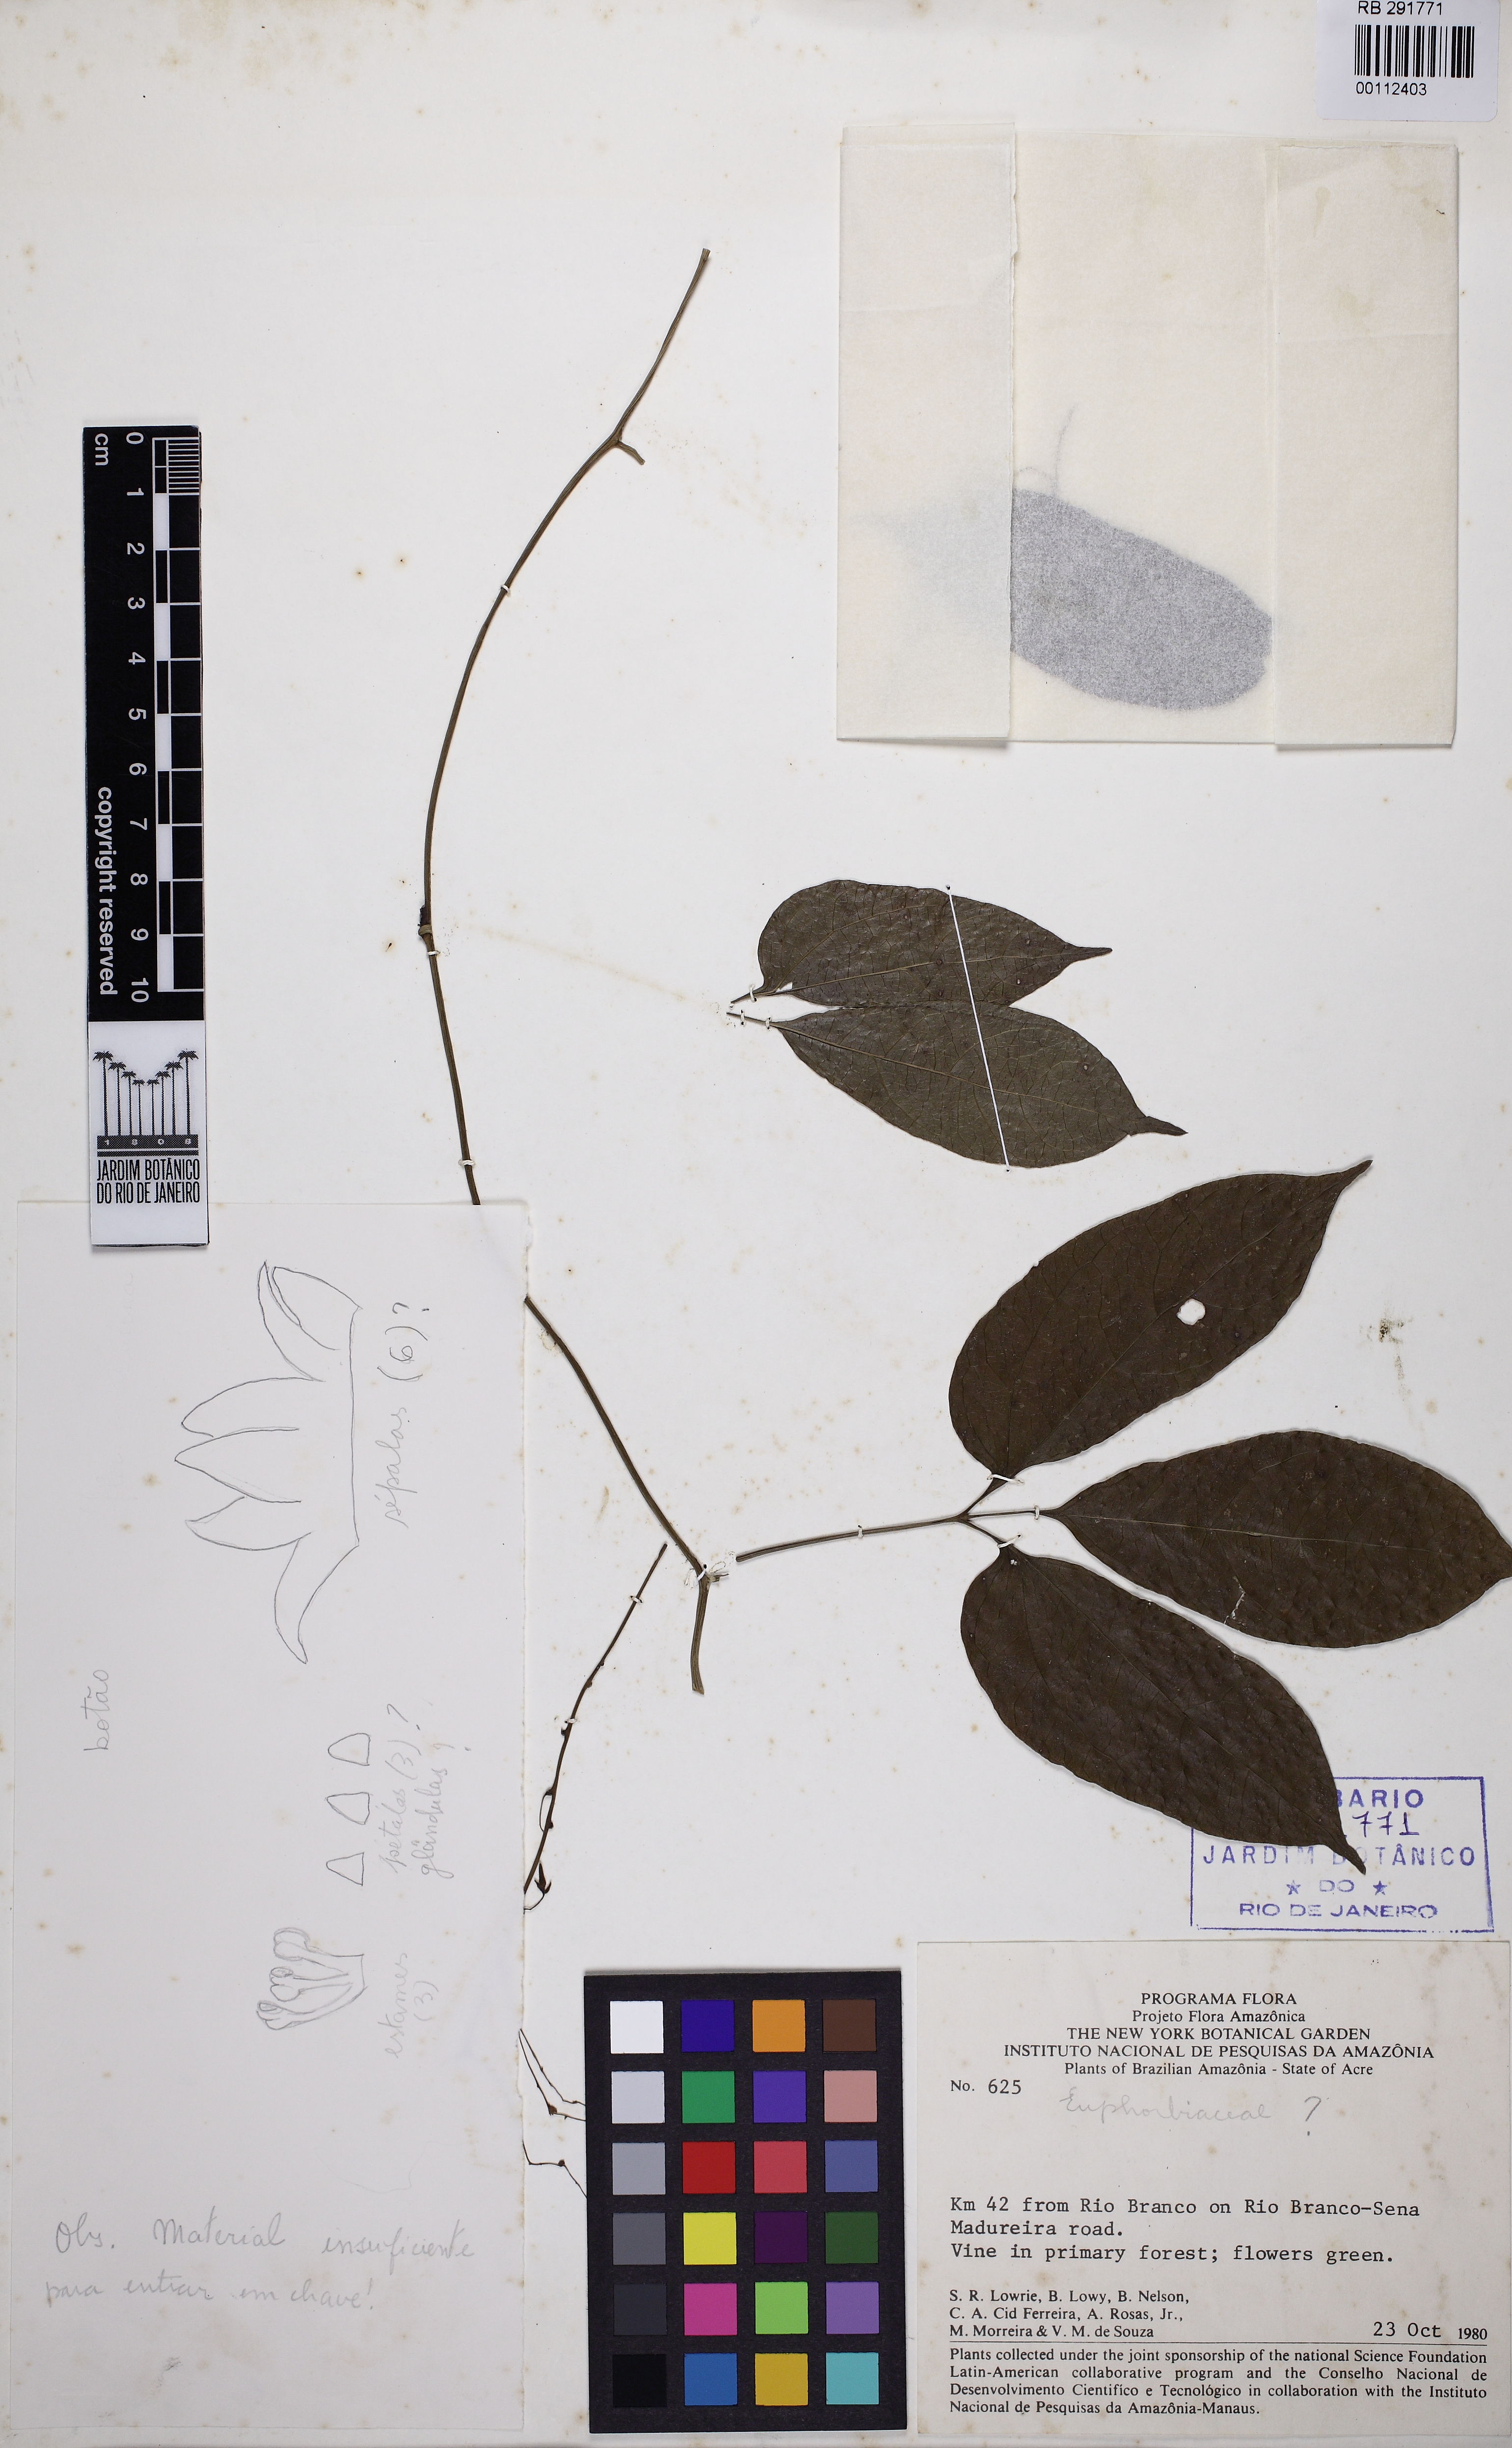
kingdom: Plantae
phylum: Tracheophyta
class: Magnoliopsida
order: Cucurbitales
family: Cucurbitaceae
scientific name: Cucurbitaceae
